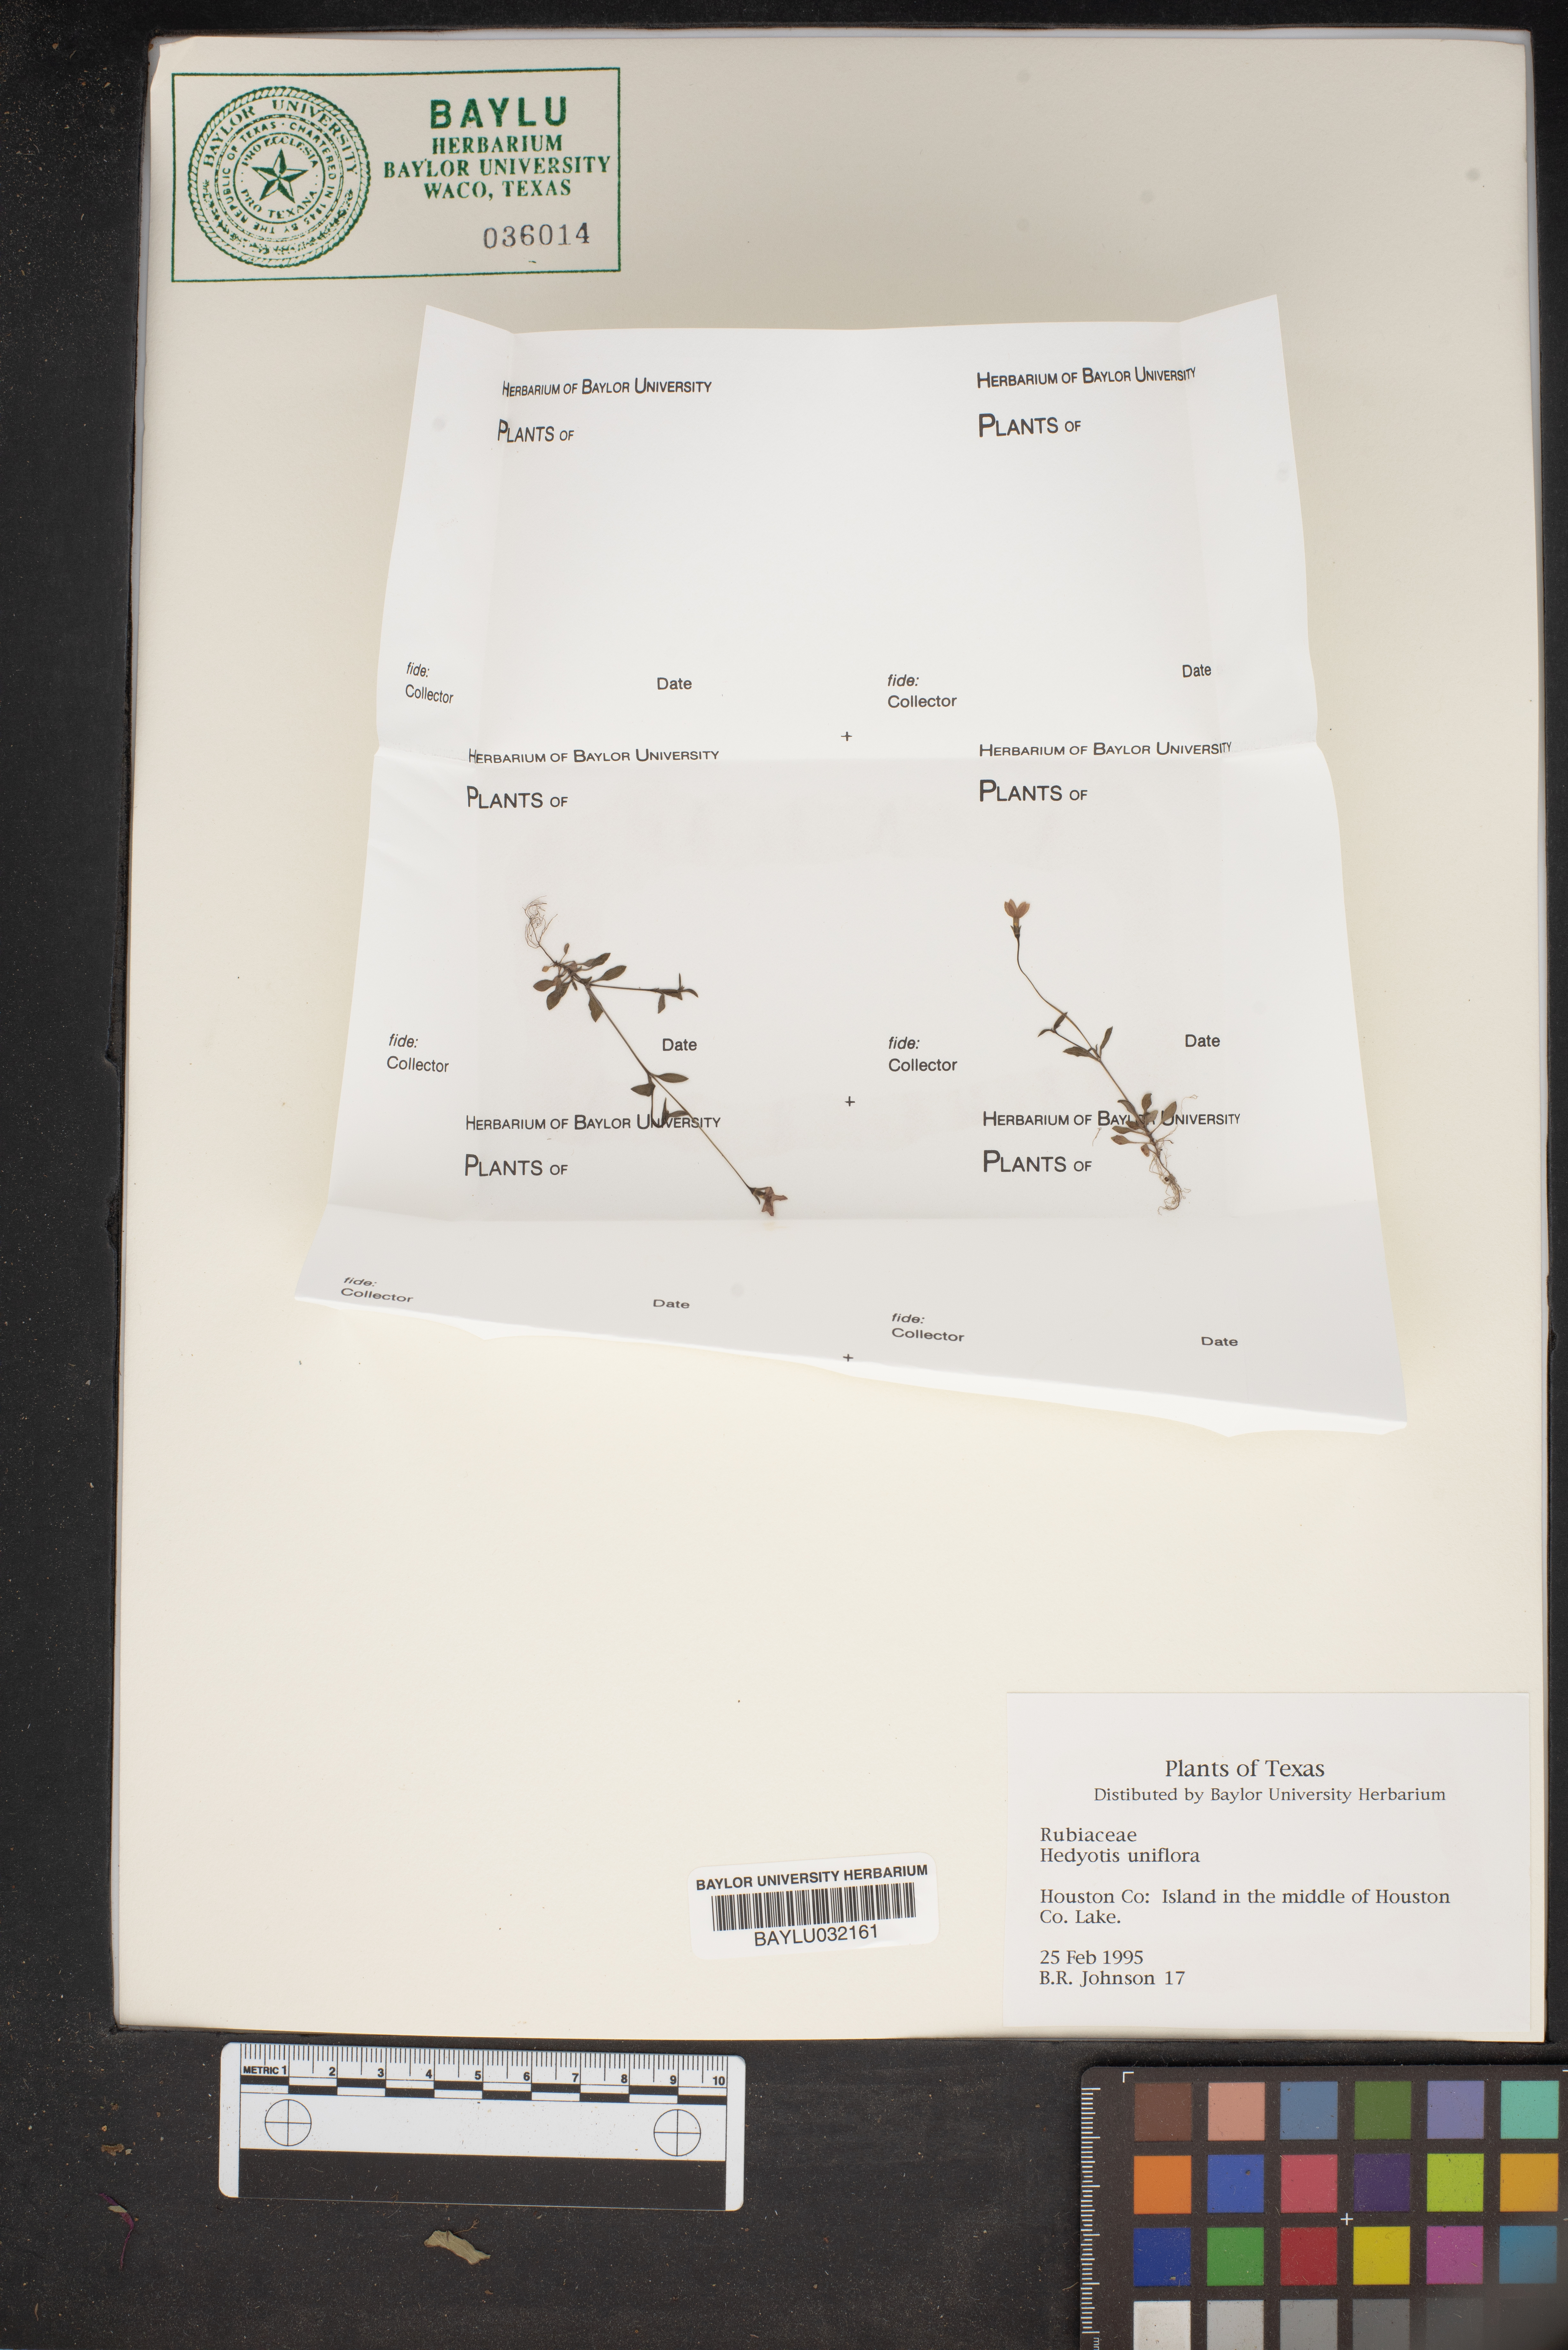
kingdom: Plantae
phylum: Tracheophyta
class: Magnoliopsida
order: Gentianales
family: Rubiaceae
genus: Edrastima
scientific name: Edrastima uniflora
